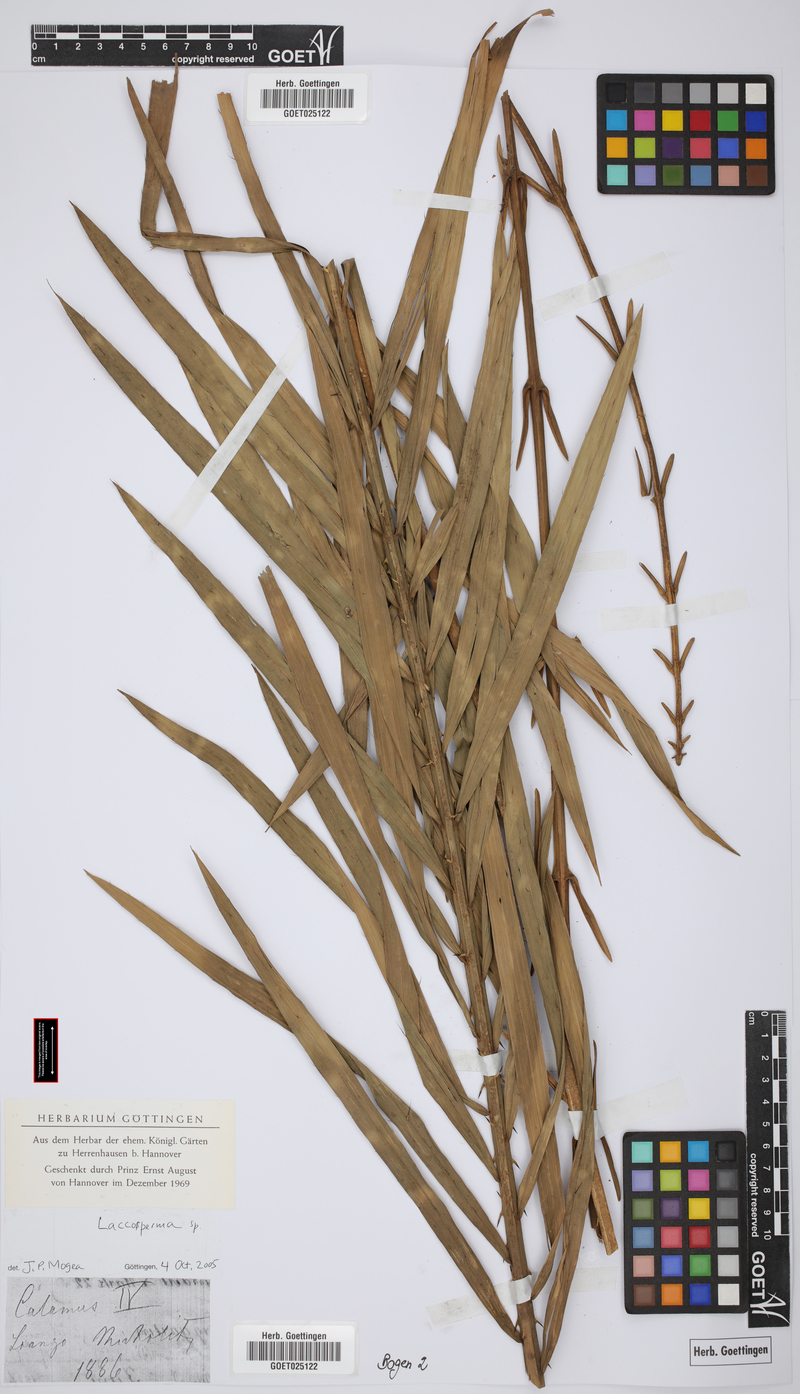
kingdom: Plantae
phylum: Tracheophyta
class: Liliopsida
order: Arecales
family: Arecaceae
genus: Laccosperma
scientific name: Laccosperma
